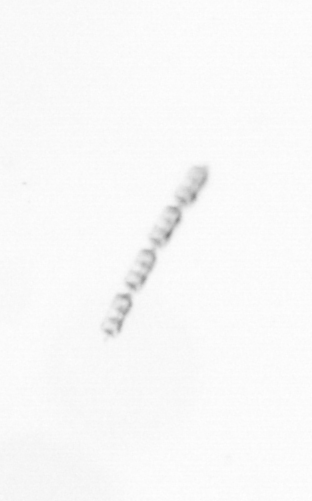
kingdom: Chromista
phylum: Ochrophyta
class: Bacillariophyceae
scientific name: Bacillariophyceae
